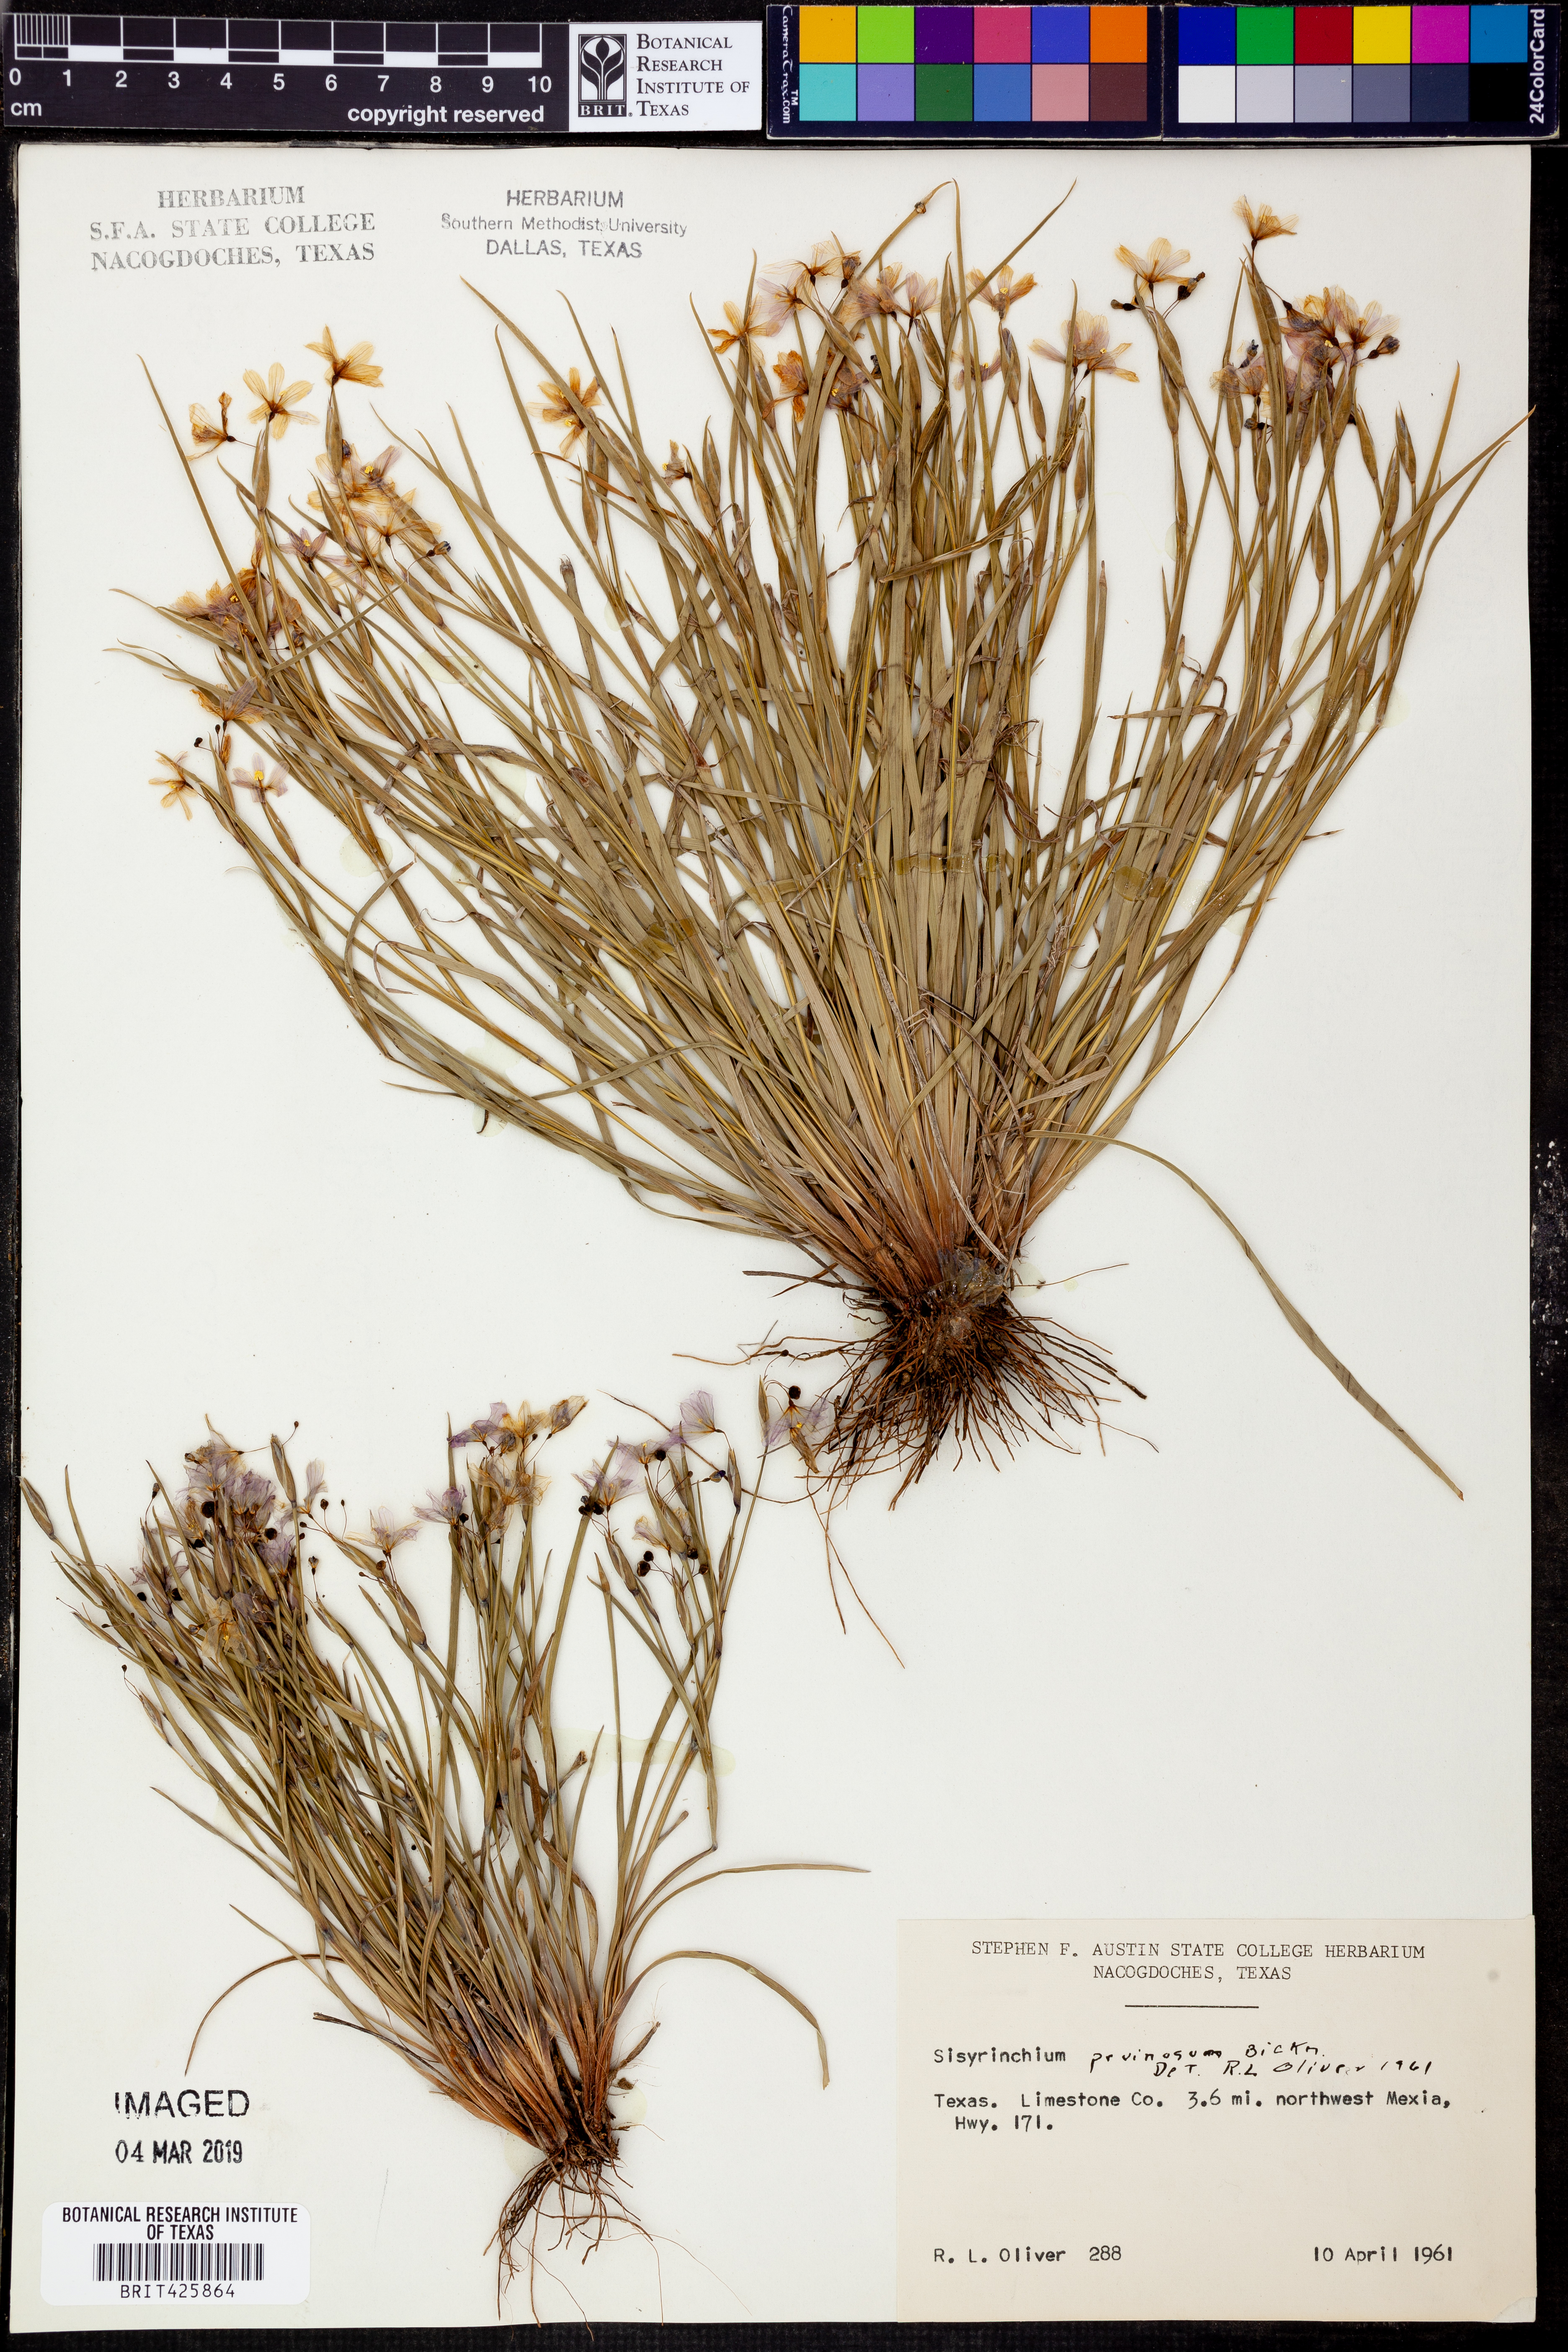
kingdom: Plantae
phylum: Tracheophyta
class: Liliopsida
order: Asparagales
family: Iridaceae
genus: Sisyrinchium
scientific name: Sisyrinchium pruinosum
